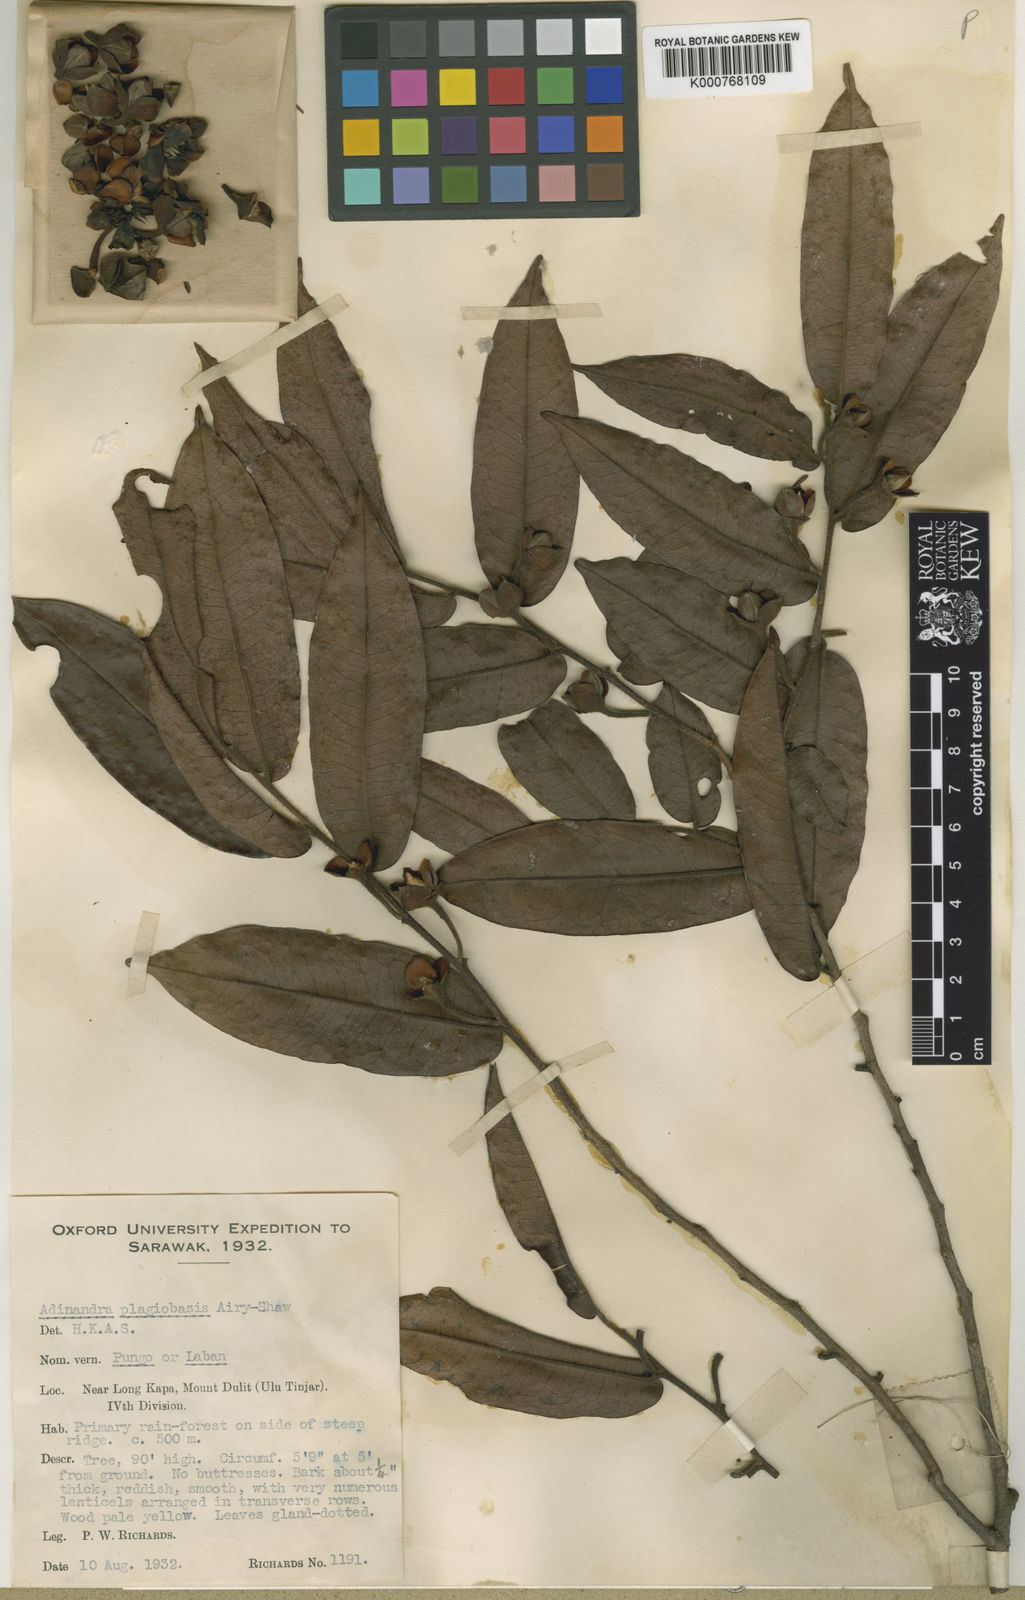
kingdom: Plantae
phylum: Tracheophyta
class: Magnoliopsida
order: Ericales
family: Pentaphylacaceae
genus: Adinandra
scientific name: Adinandra plagiobasis
